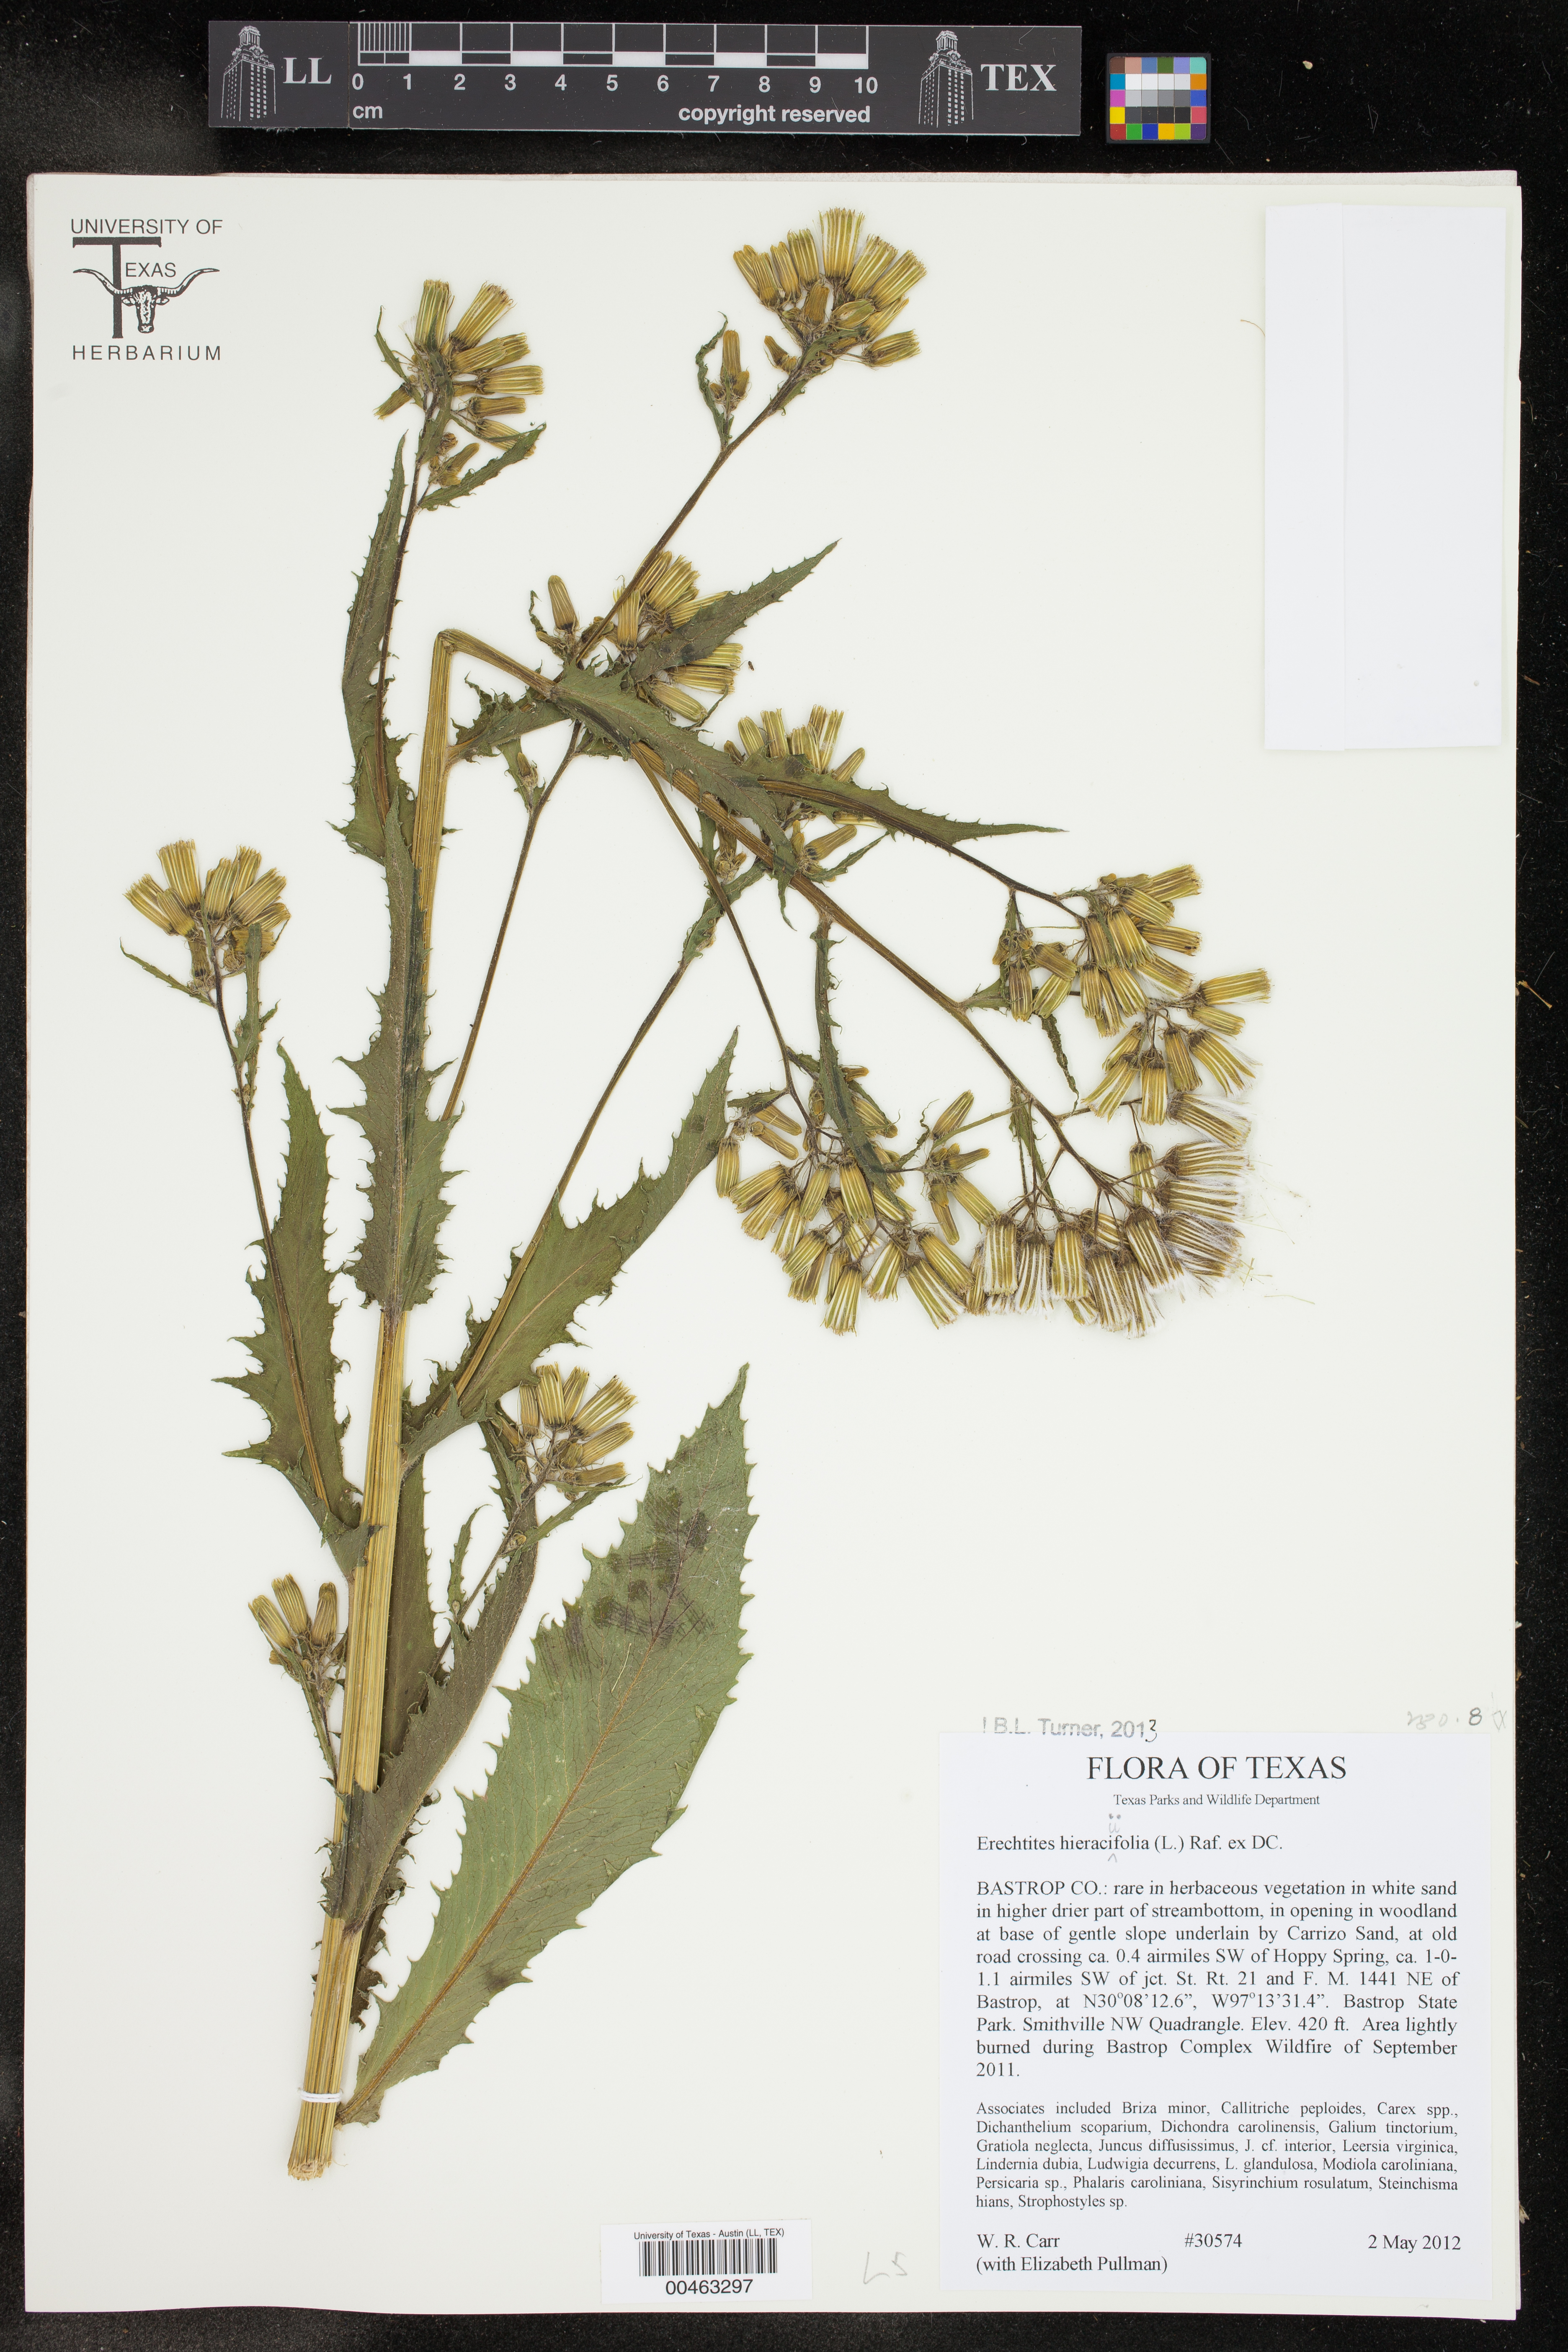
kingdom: Plantae
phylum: Tracheophyta
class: Magnoliopsida
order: Asterales
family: Asteraceae
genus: Erechtites
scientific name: Erechtites hieraciifolius
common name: American burnweed
